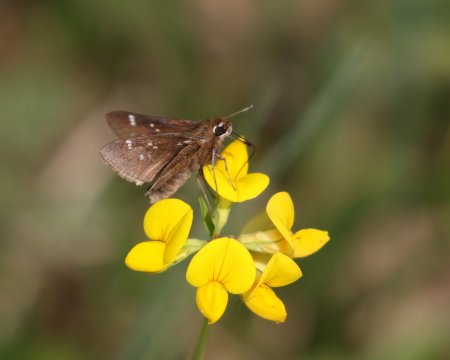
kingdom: Animalia
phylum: Arthropoda
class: Insecta
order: Lepidoptera
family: Hesperiidae
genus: Atrytonopsis
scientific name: Atrytonopsis hianna
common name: Dusted Skipper
